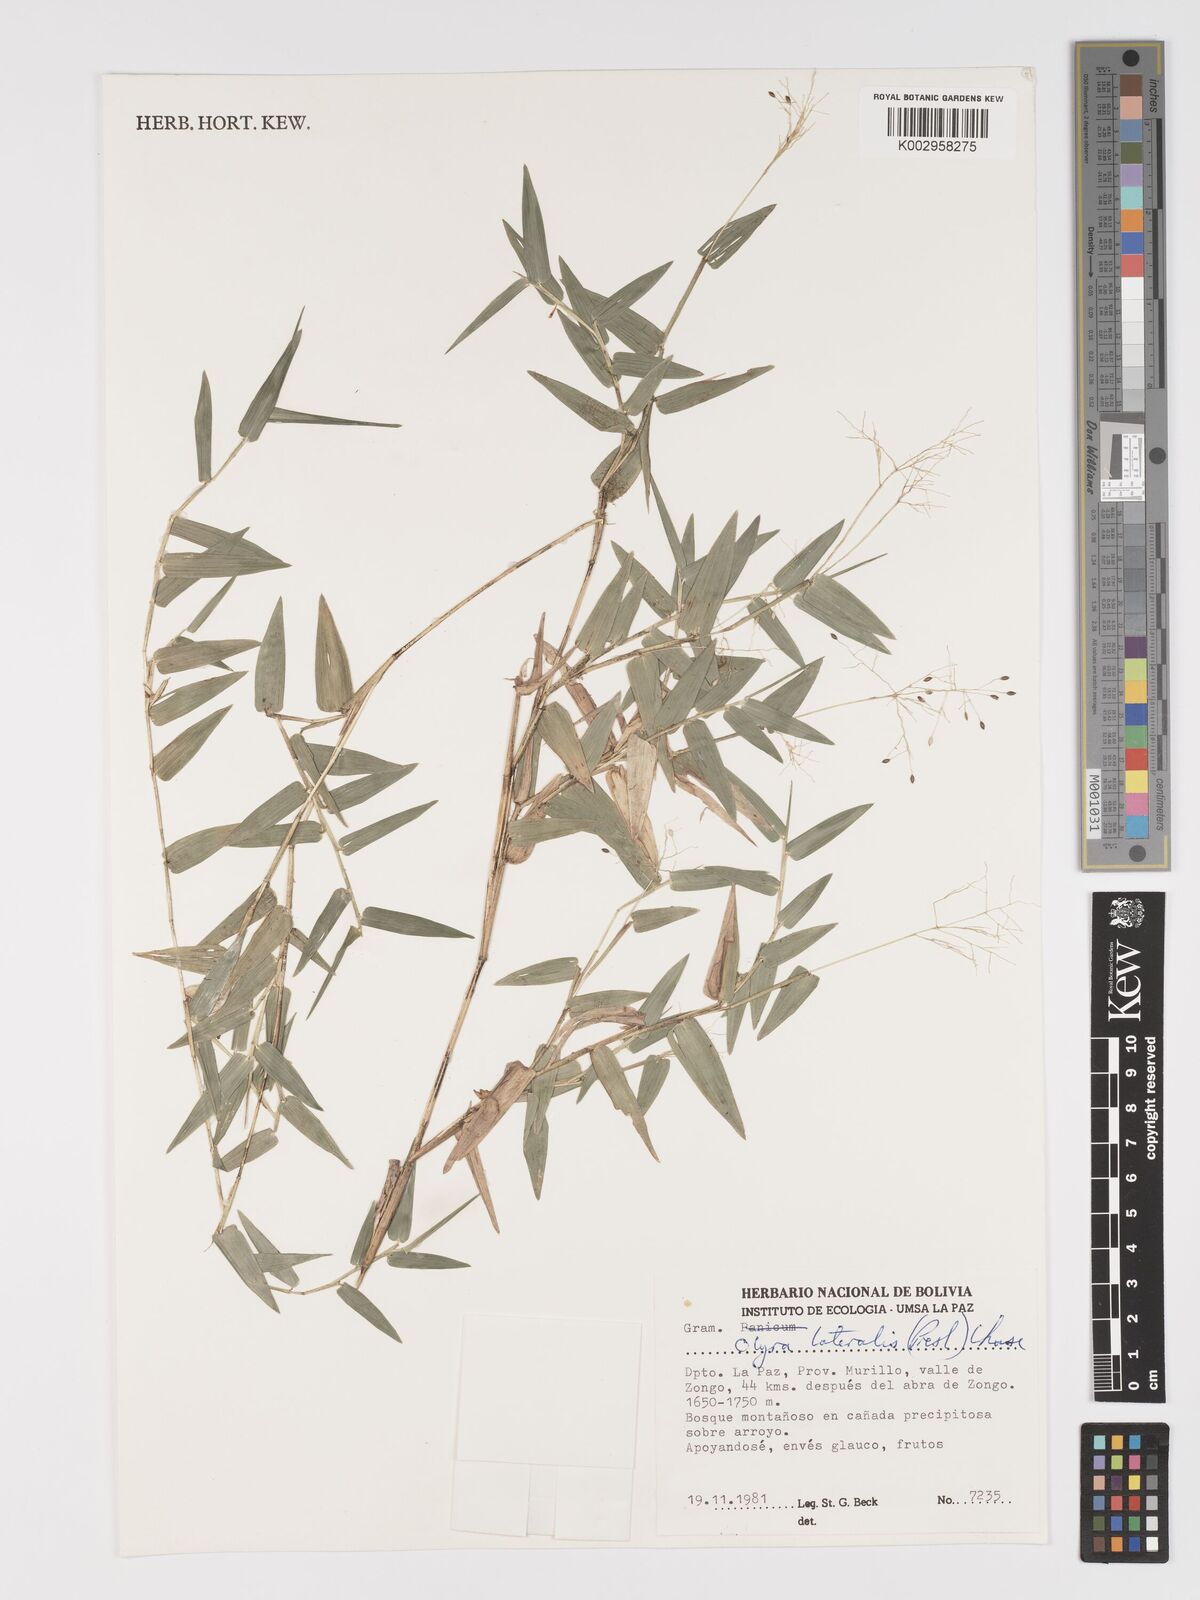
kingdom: Plantae
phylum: Tracheophyta
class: Liliopsida
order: Poales
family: Poaceae
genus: Parodiolyra
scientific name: Parodiolyra lateralis
